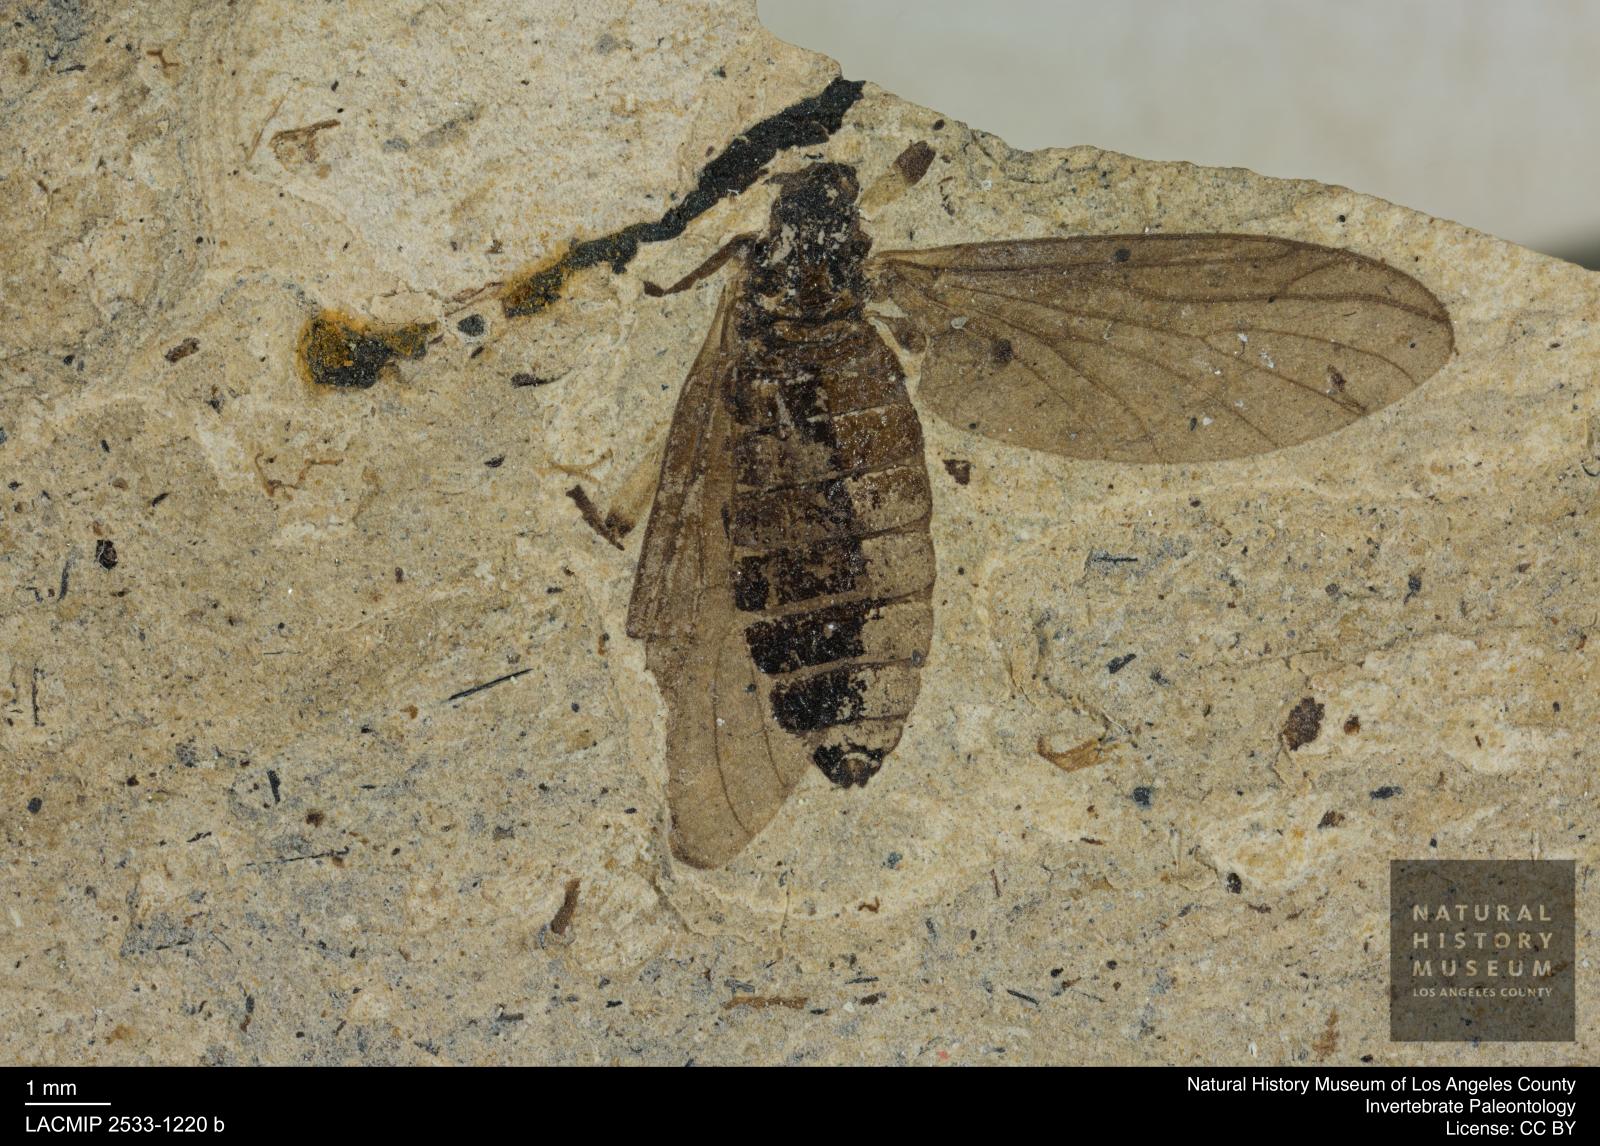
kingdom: Animalia
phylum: Arthropoda
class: Insecta
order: Diptera
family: Bibionidae
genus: Plecia
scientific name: Plecia grossa
